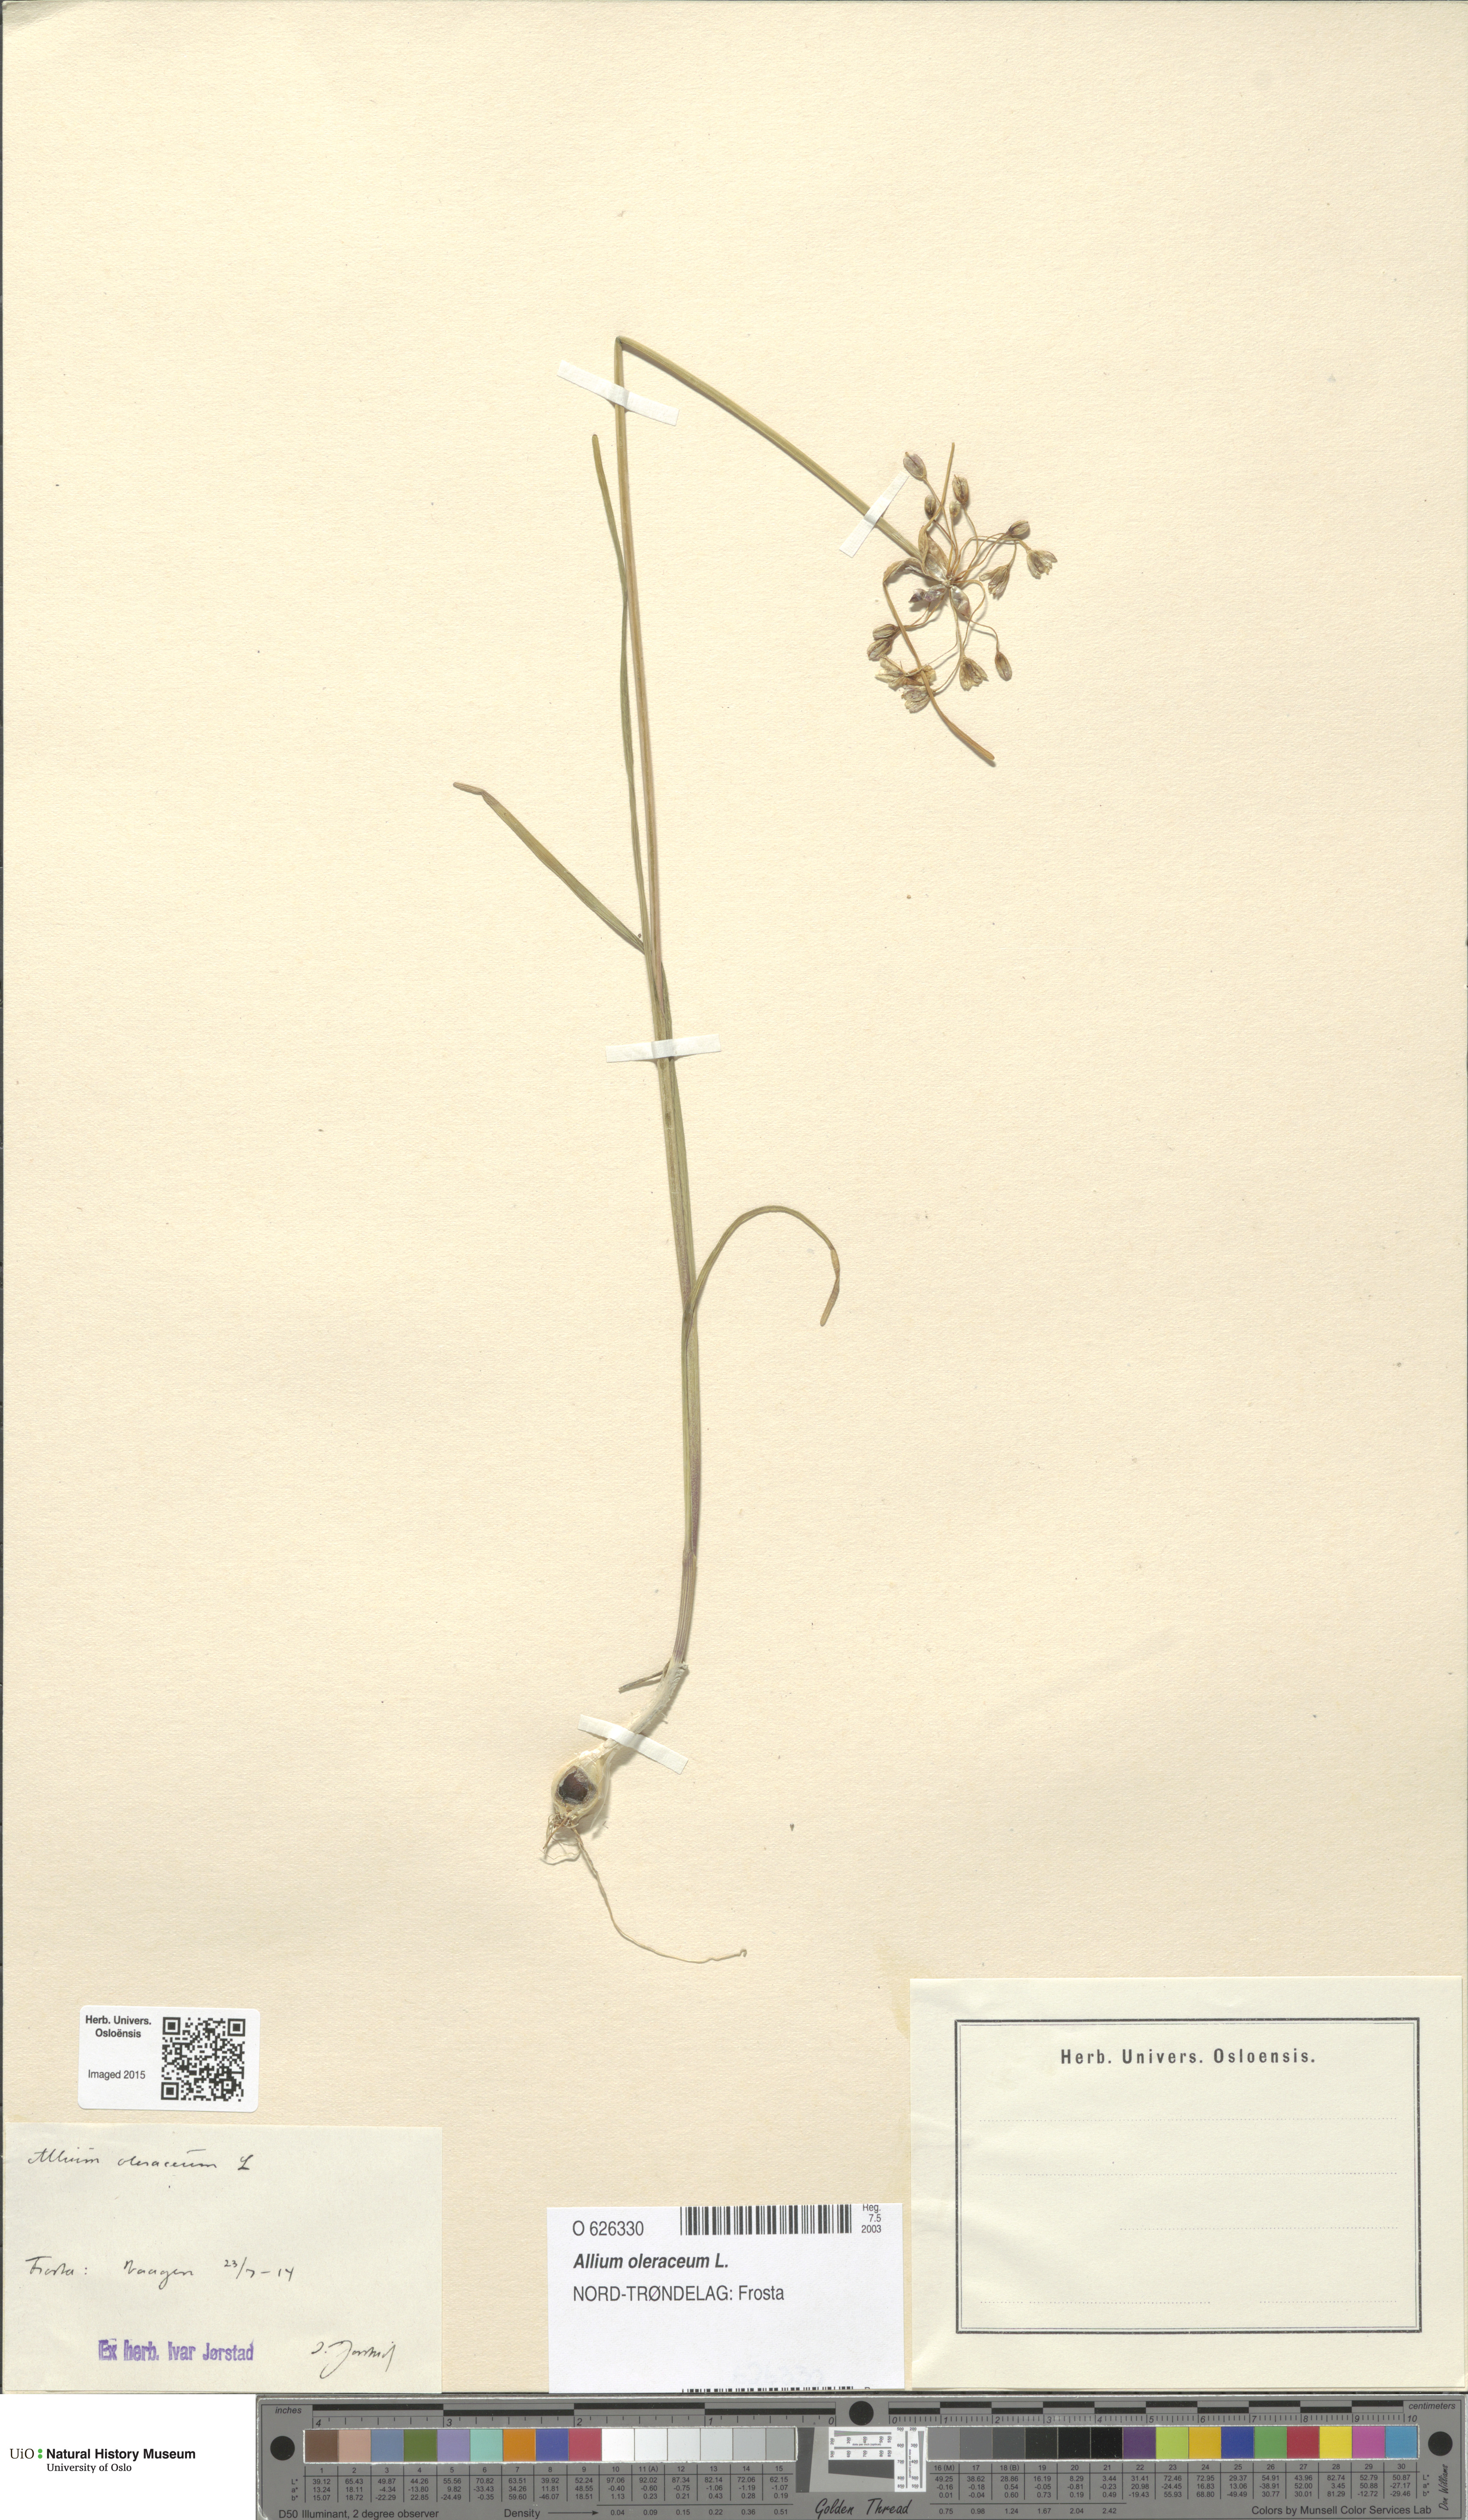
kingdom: Plantae
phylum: Tracheophyta
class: Liliopsida
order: Asparagales
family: Amaryllidaceae
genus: Allium
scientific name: Allium oleraceum
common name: Field garlic
